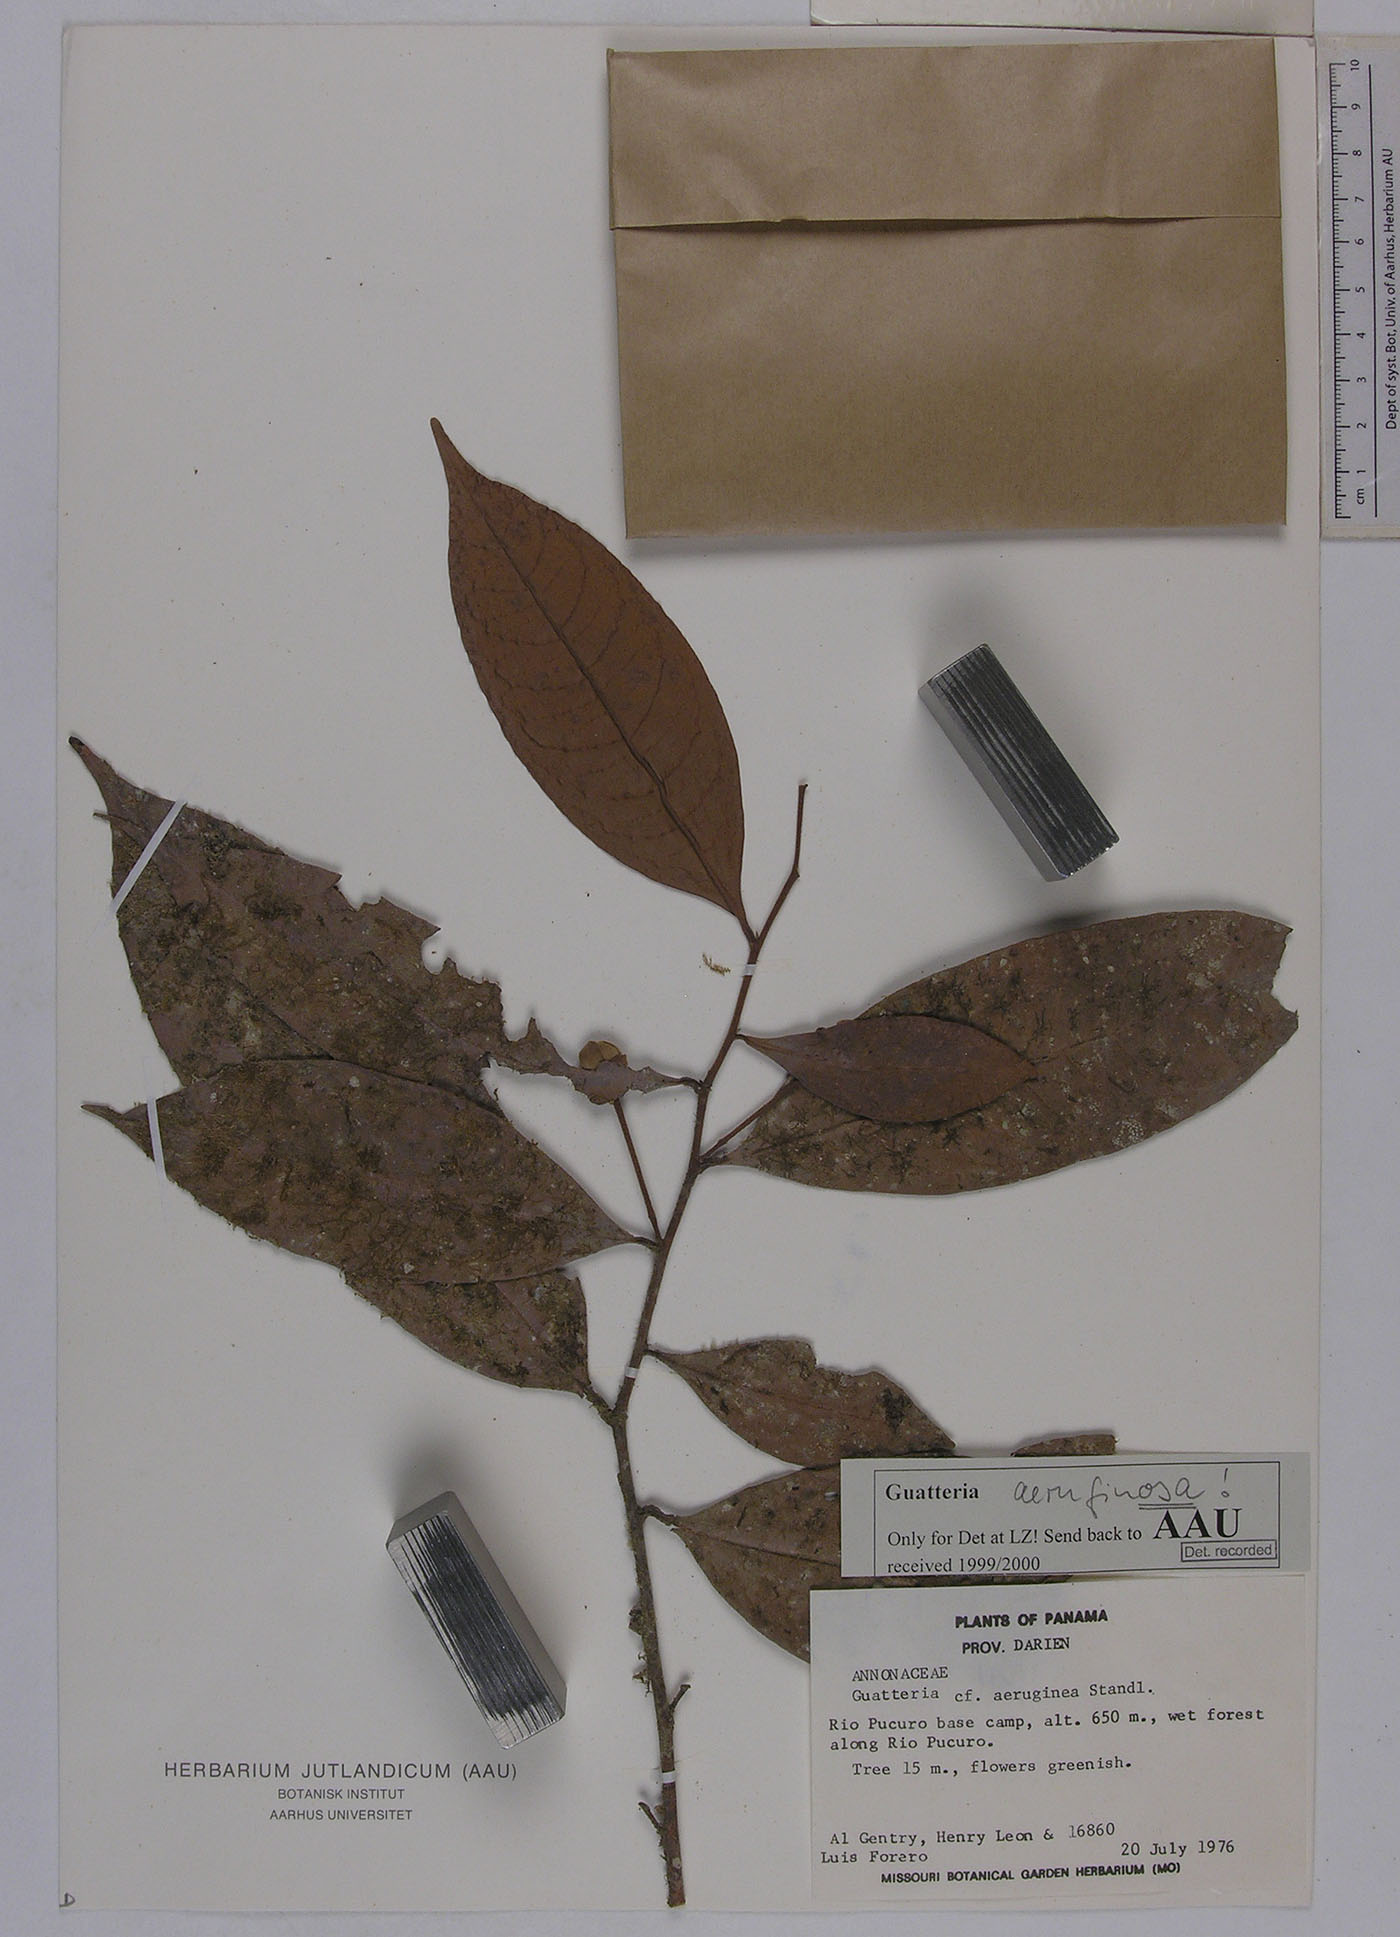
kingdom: Plantae
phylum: Tracheophyta
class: Magnoliopsida
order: Magnoliales
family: Annonaceae
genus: Guatteria
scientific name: Guatteria darienensis
